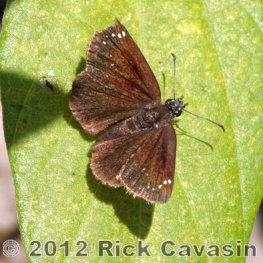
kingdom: Animalia
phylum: Arthropoda
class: Insecta
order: Lepidoptera
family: Hesperiidae
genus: Pholisora
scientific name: Pholisora catullus
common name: Common Sootywing
